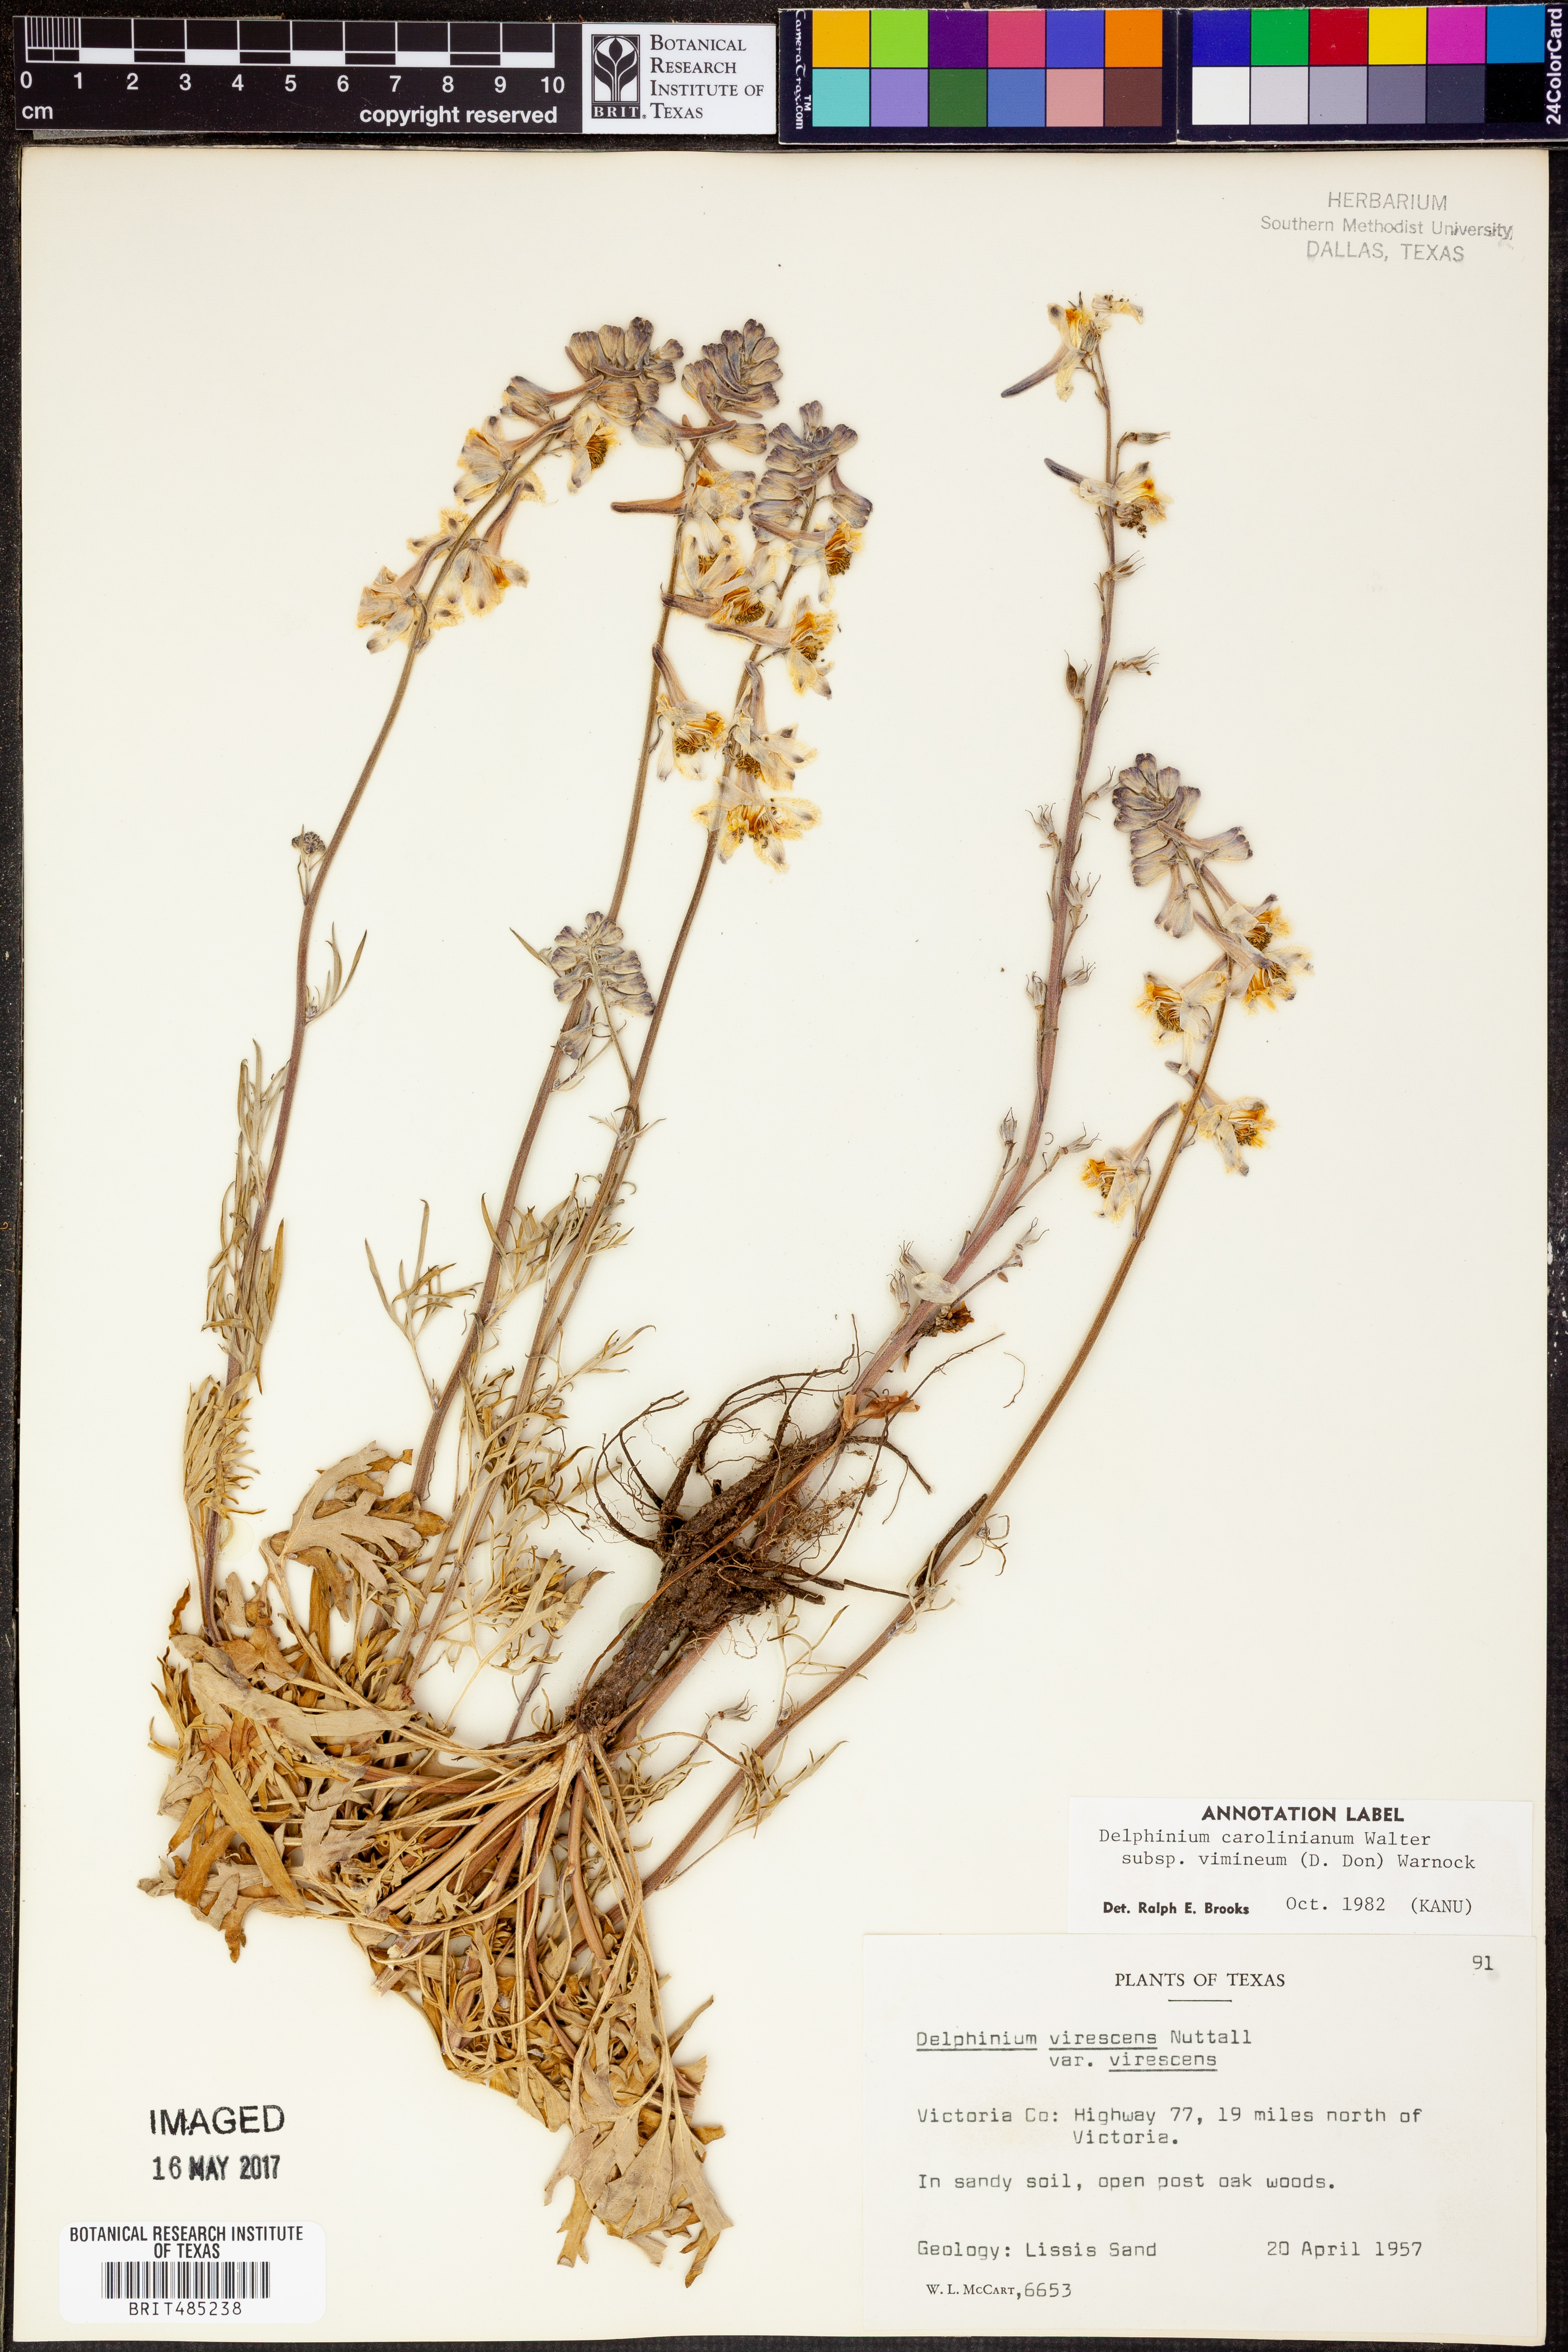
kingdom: Plantae
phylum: Tracheophyta
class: Magnoliopsida
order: Ranunculales
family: Ranunculaceae
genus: Delphinium
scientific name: Delphinium carolinianum
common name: Carolina larkspur
